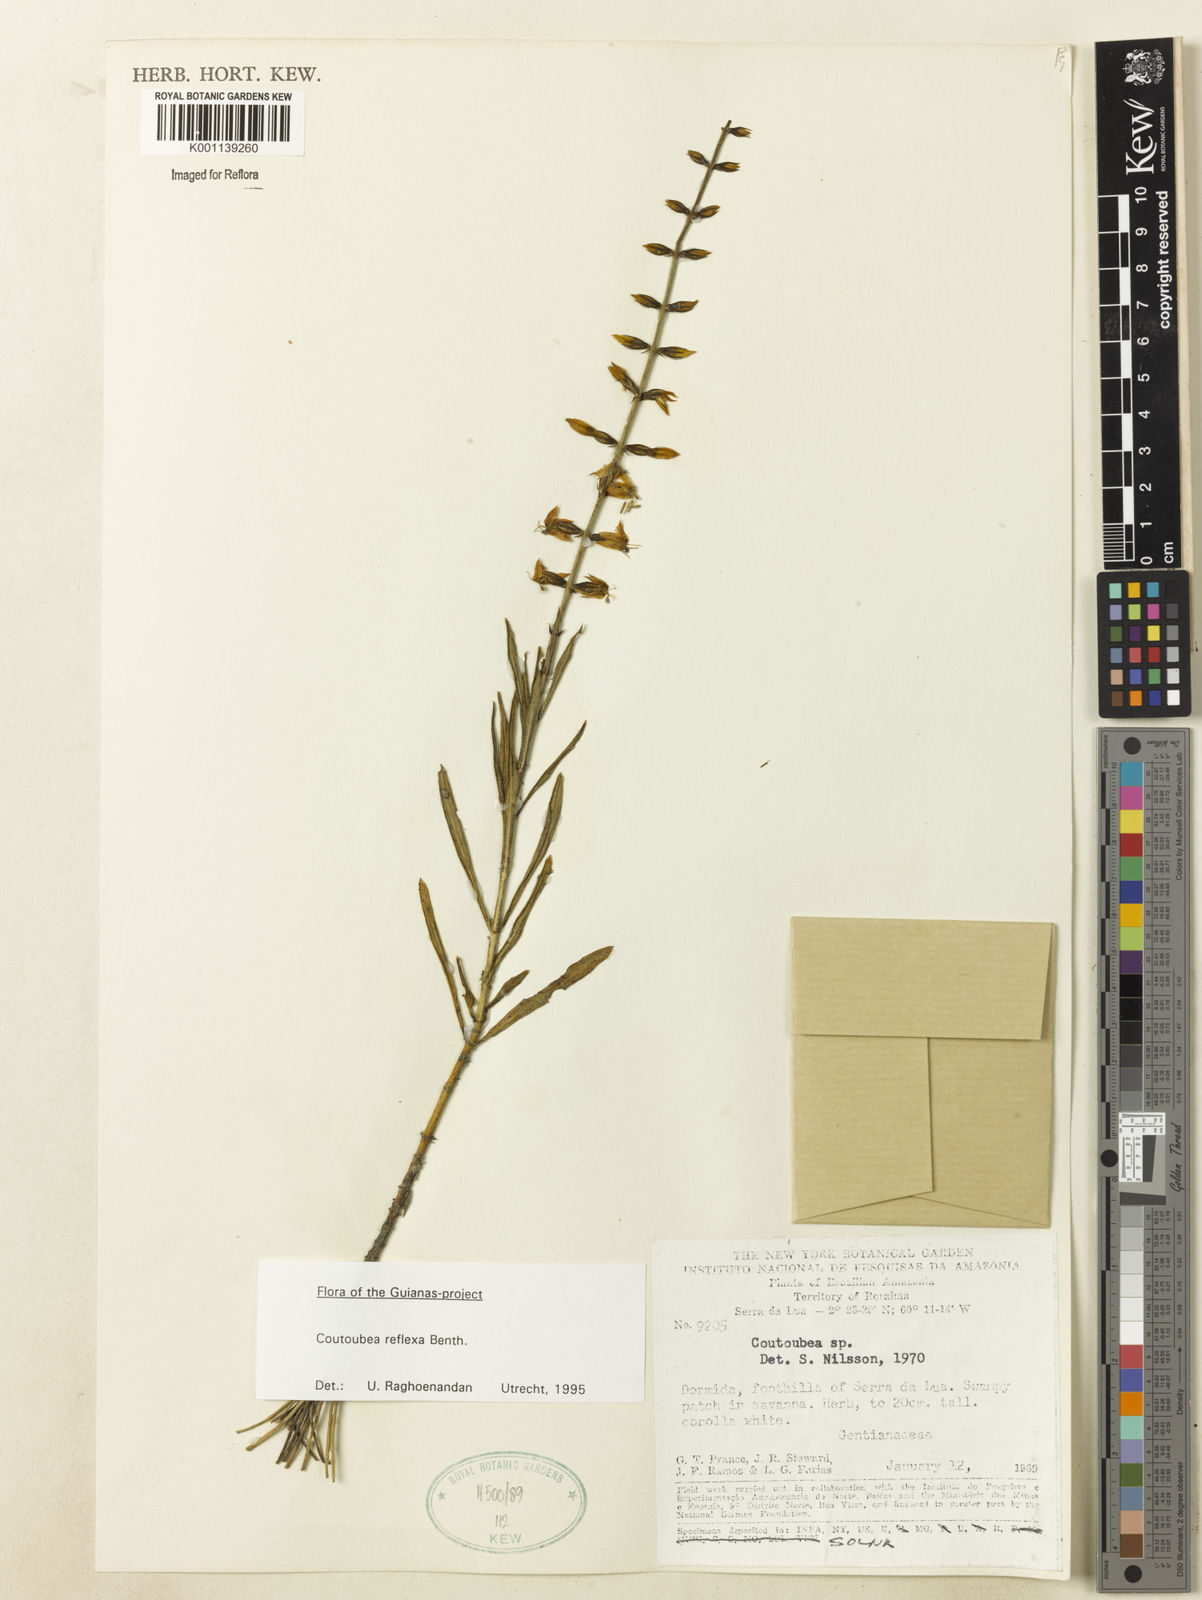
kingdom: Plantae
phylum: Tracheophyta
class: Magnoliopsida
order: Gentianales
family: Gentianaceae
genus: Coutoubea
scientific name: Coutoubea reflexa
